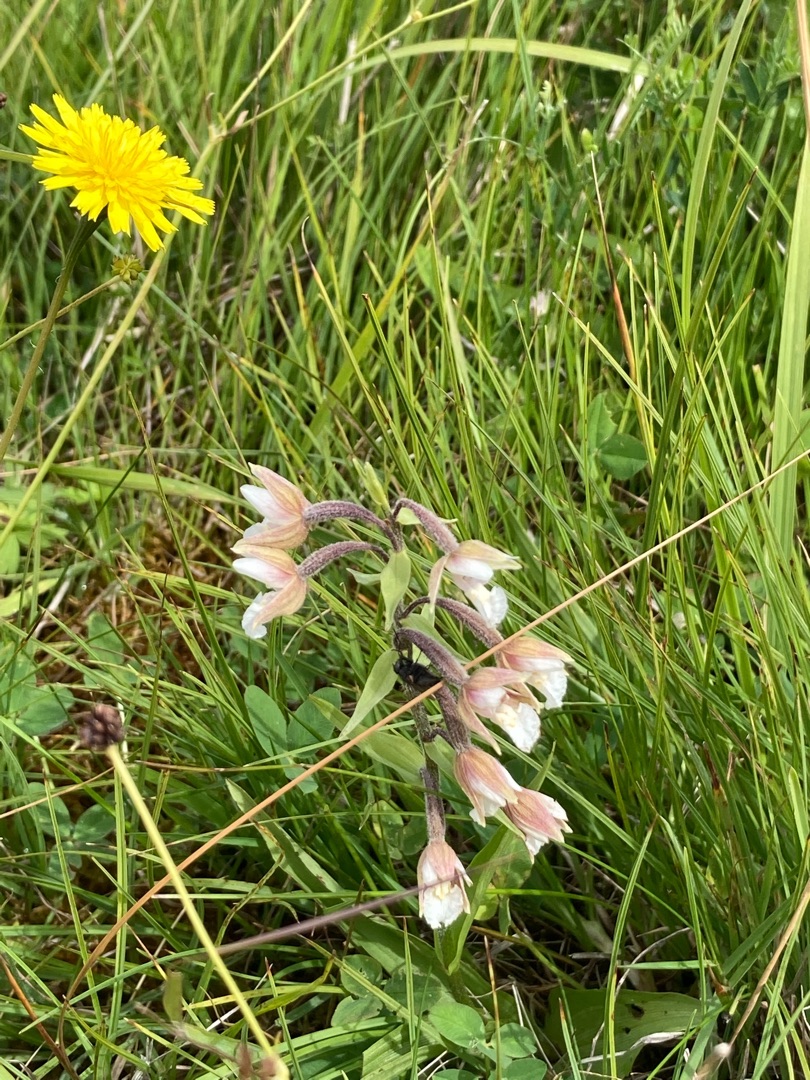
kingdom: Plantae
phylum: Tracheophyta
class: Liliopsida
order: Asparagales
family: Orchidaceae
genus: Epipactis
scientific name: Epipactis palustris
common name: Sump-hullæbe
